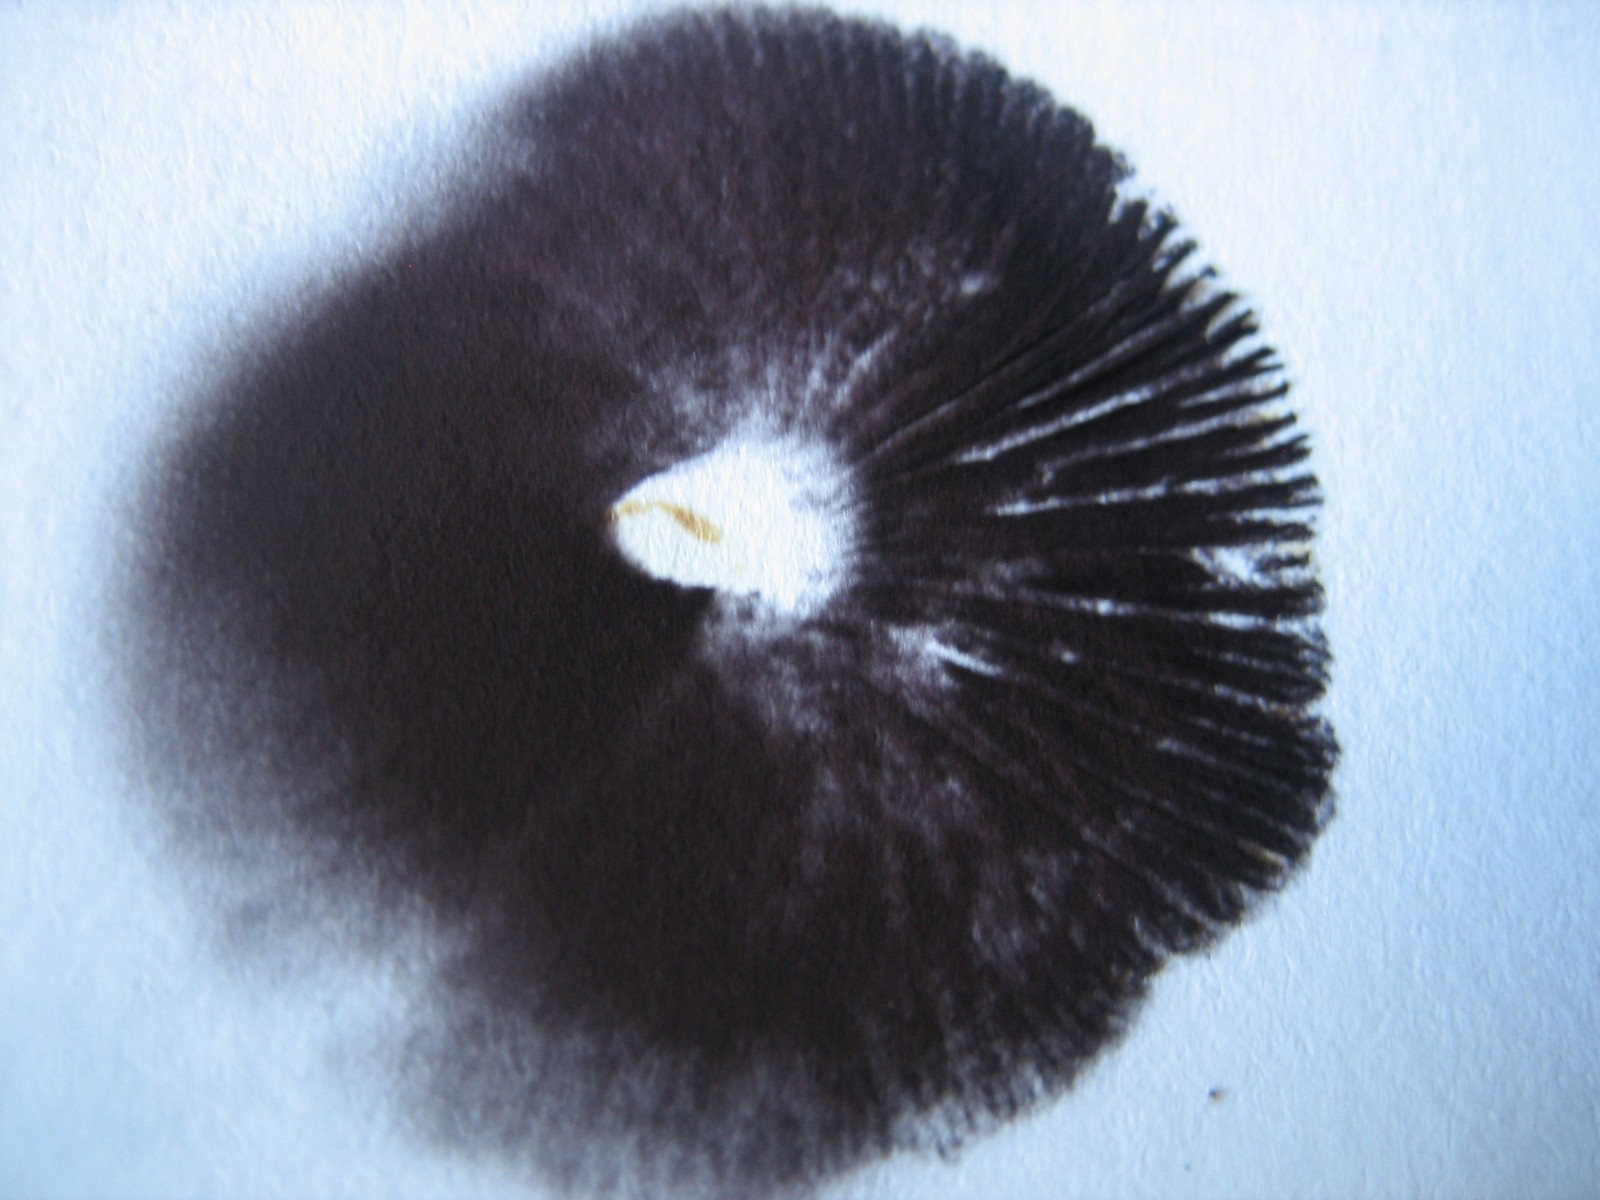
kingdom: Fungi
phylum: Basidiomycota
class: Agaricomycetes
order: Agaricales
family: Strophariaceae
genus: Deconica
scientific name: Deconica montana
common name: rødbrun stråhat
